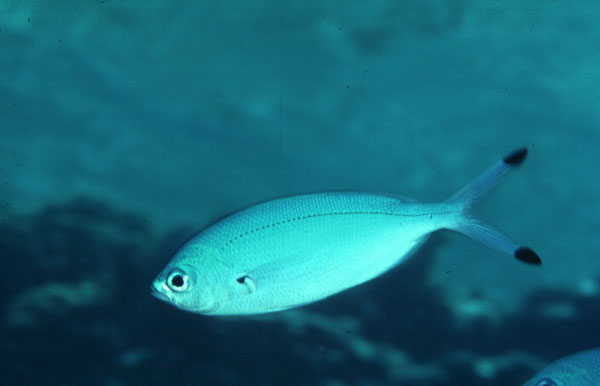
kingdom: Animalia
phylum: Chordata
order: Perciformes
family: Caesionidae
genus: Caesio
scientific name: Caesio lunaris
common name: Blue fusilier
